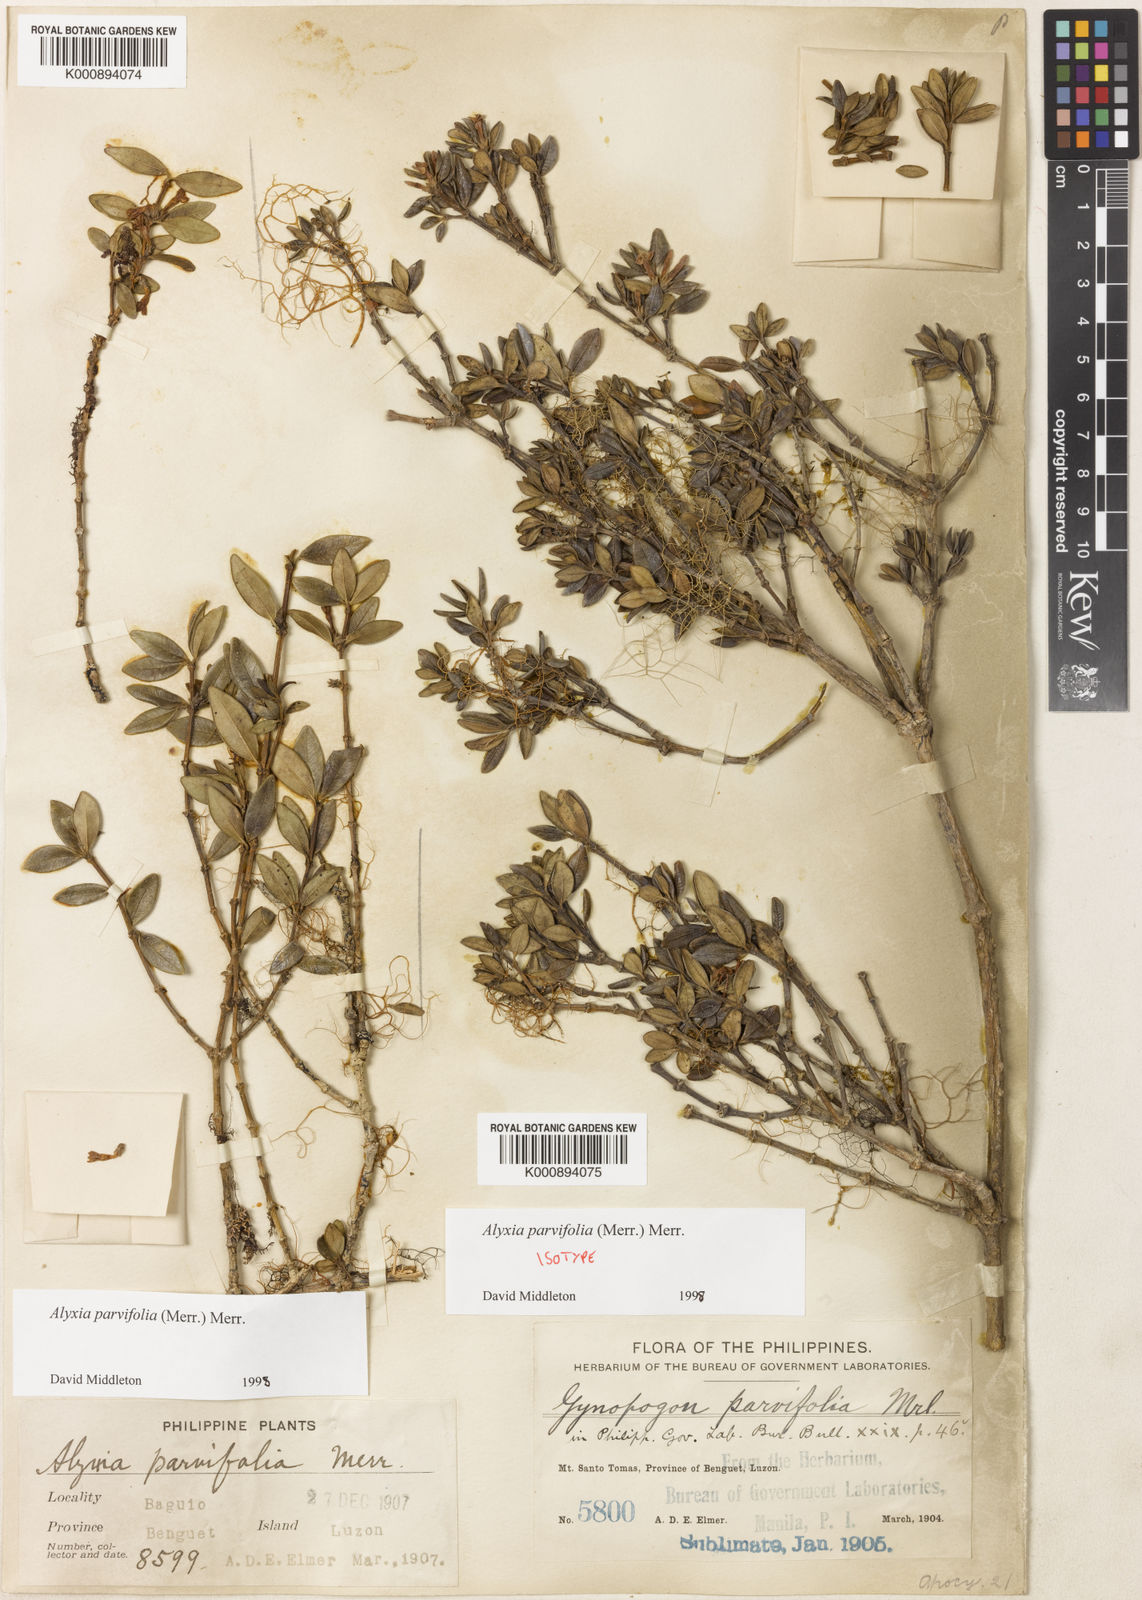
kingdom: Plantae
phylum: Tracheophyta
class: Magnoliopsida
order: Gentianales
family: Apocynaceae
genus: Alyxia
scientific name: Alyxia parvifolia
